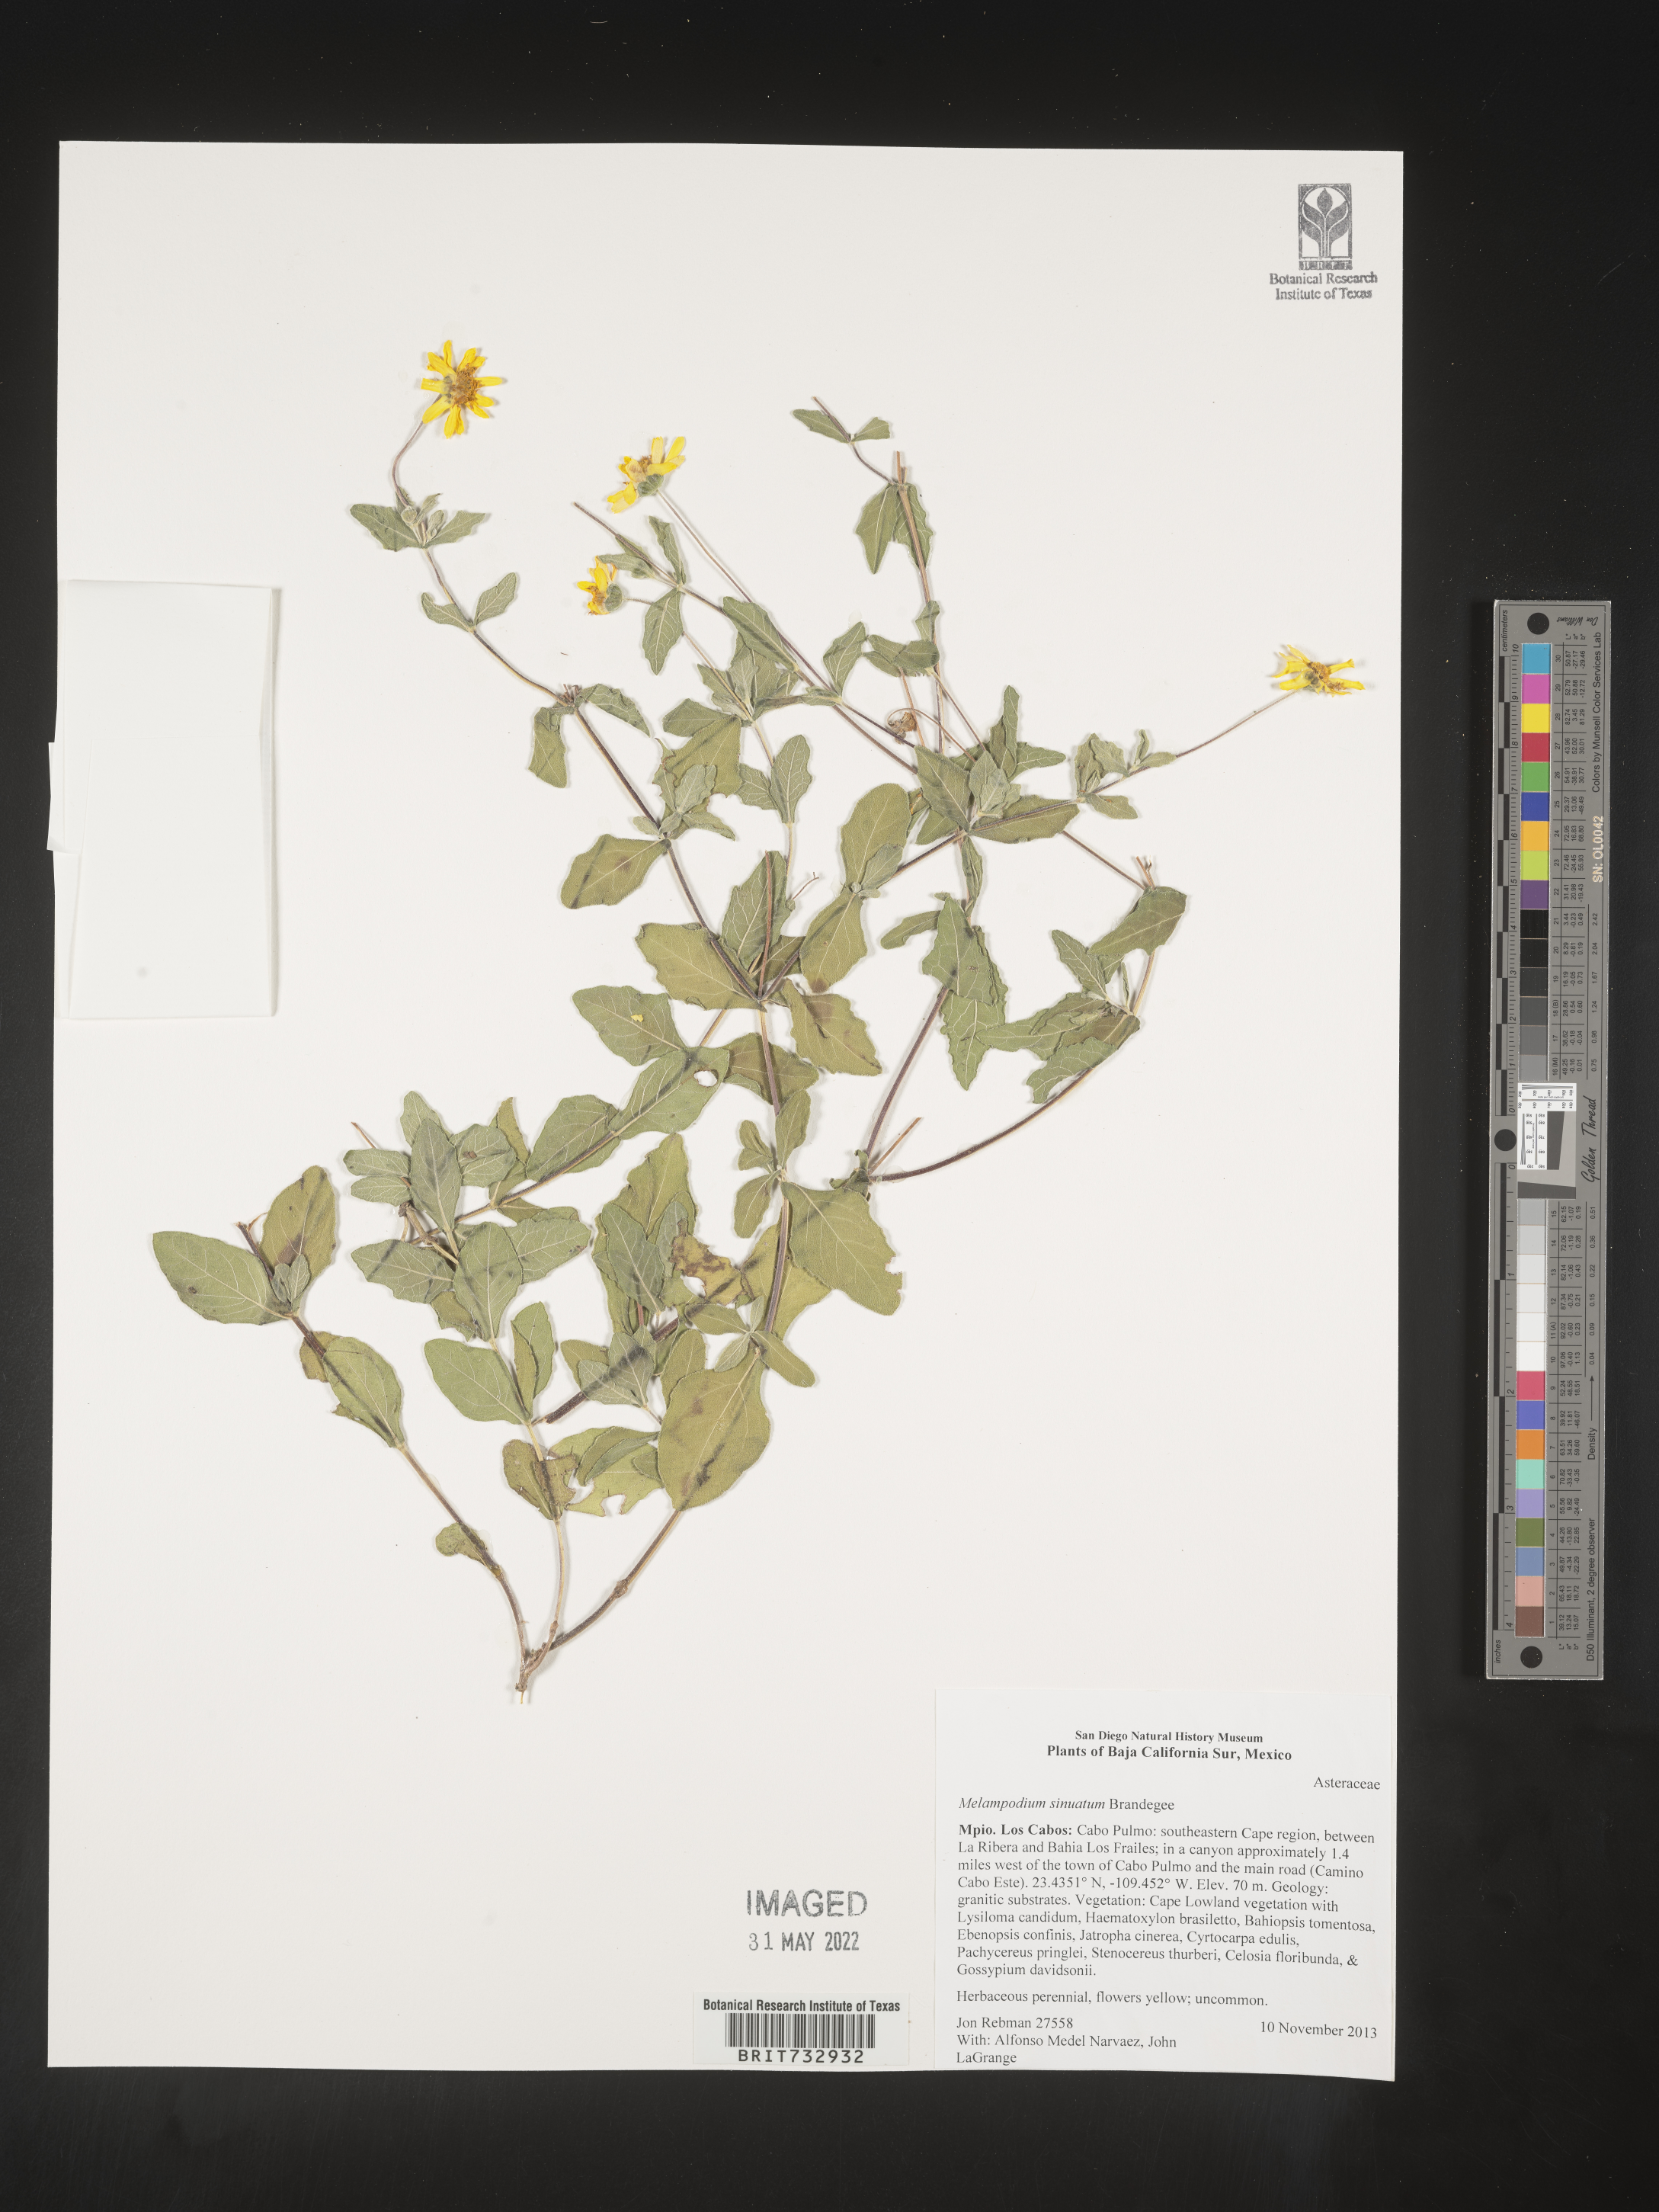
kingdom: Plantae
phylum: Tracheophyta
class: Magnoliopsida
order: Asterales
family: Asteraceae
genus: Melampodium
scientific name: Melampodium
